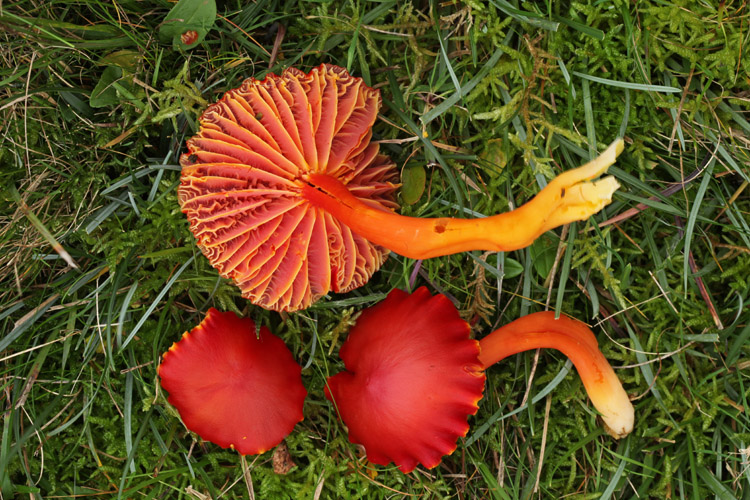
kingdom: Fungi
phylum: Basidiomycota
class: Agaricomycetes
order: Agaricales
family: Hygrophoraceae
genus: Hygrocybe
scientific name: Hygrocybe coccinea
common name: cinnober-vokshat
